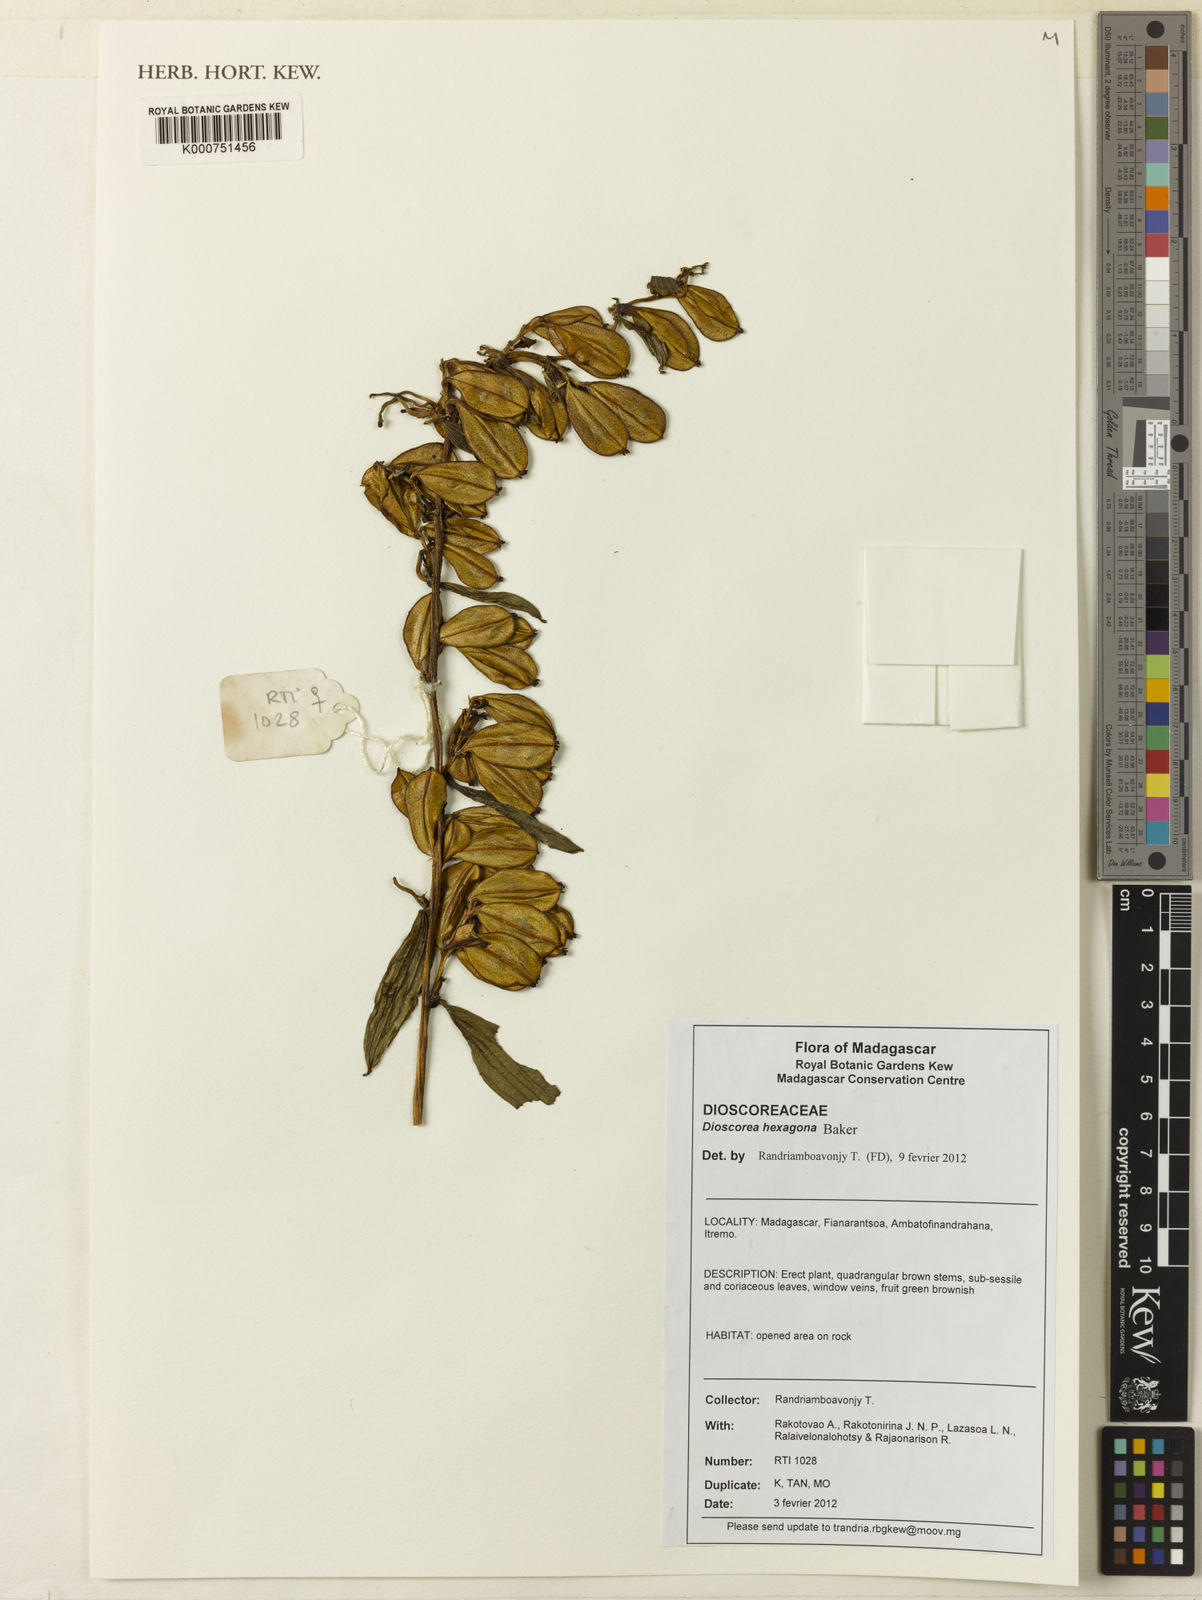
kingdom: Plantae
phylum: Tracheophyta
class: Liliopsida
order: Dioscoreales
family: Dioscoreaceae
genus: Dioscorea
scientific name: Dioscorea hexagona
